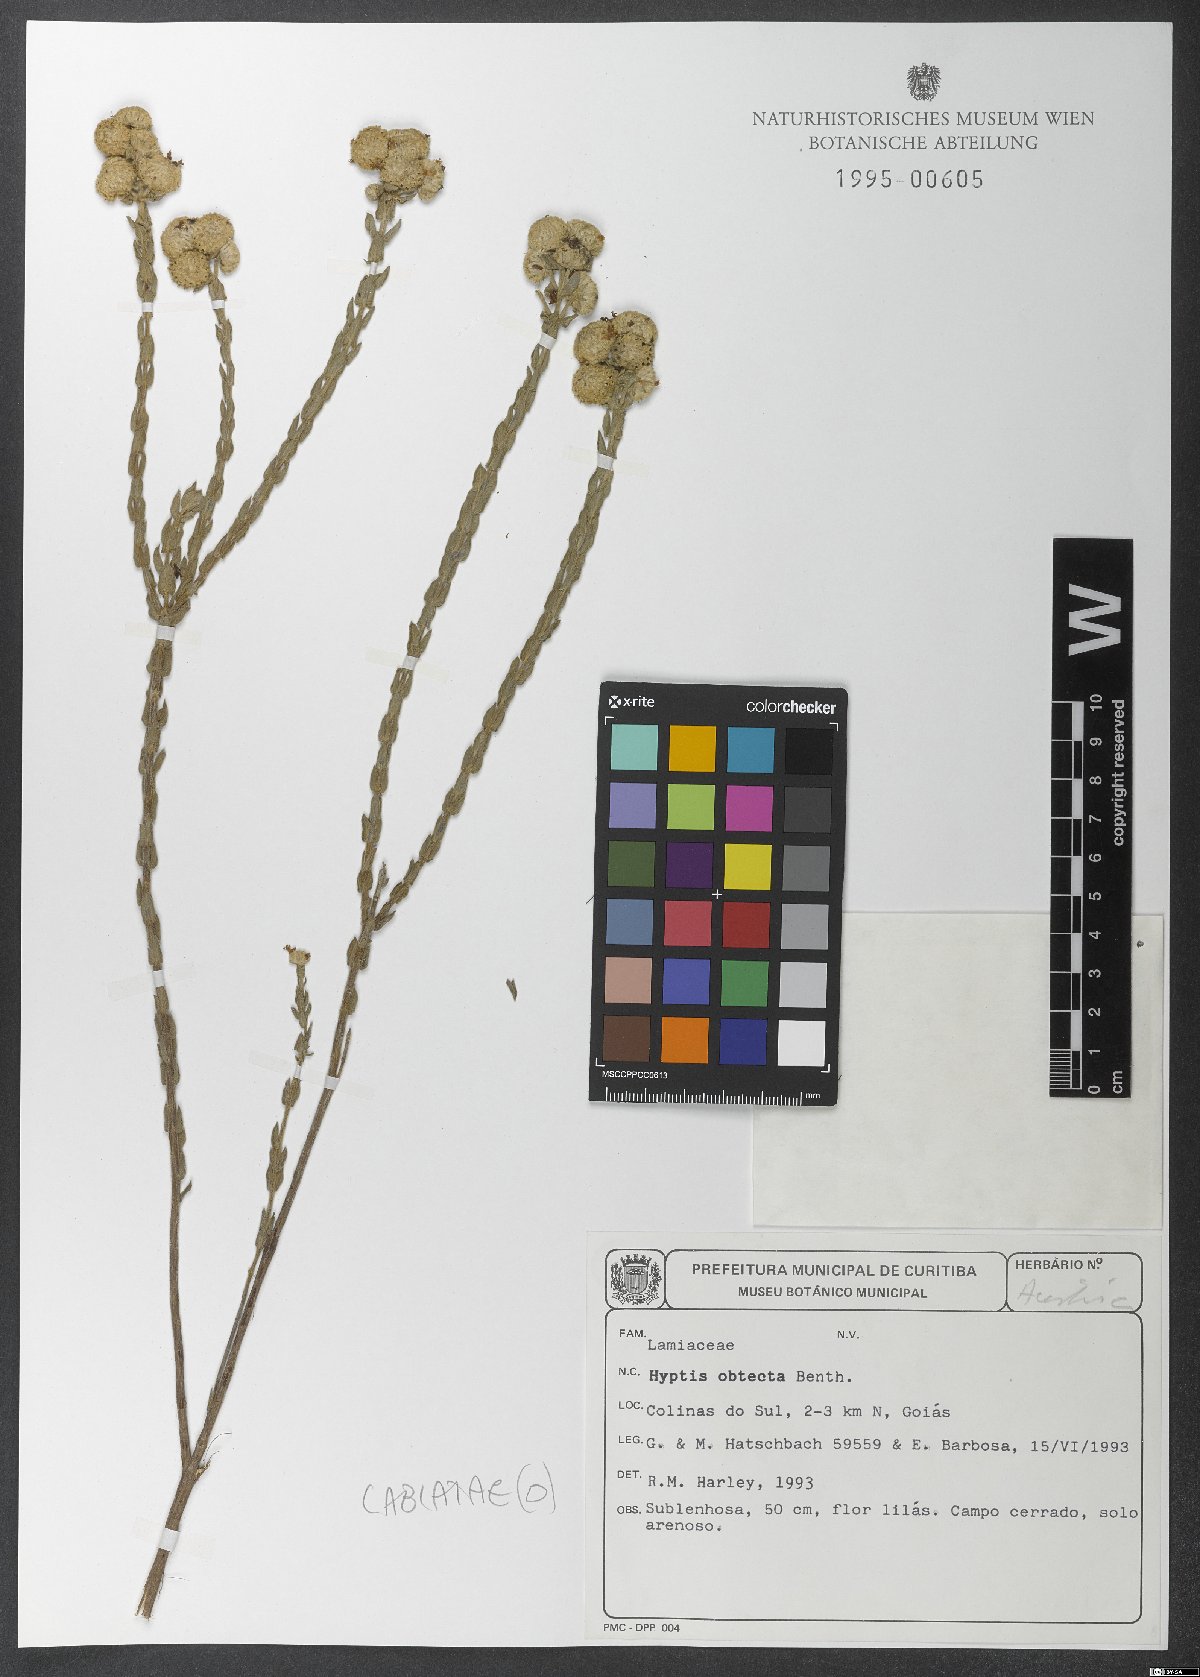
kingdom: Plantae
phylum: Tracheophyta
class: Magnoliopsida
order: Lamiales
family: Lamiaceae
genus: Hyptis
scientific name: Hyptis obtecta
